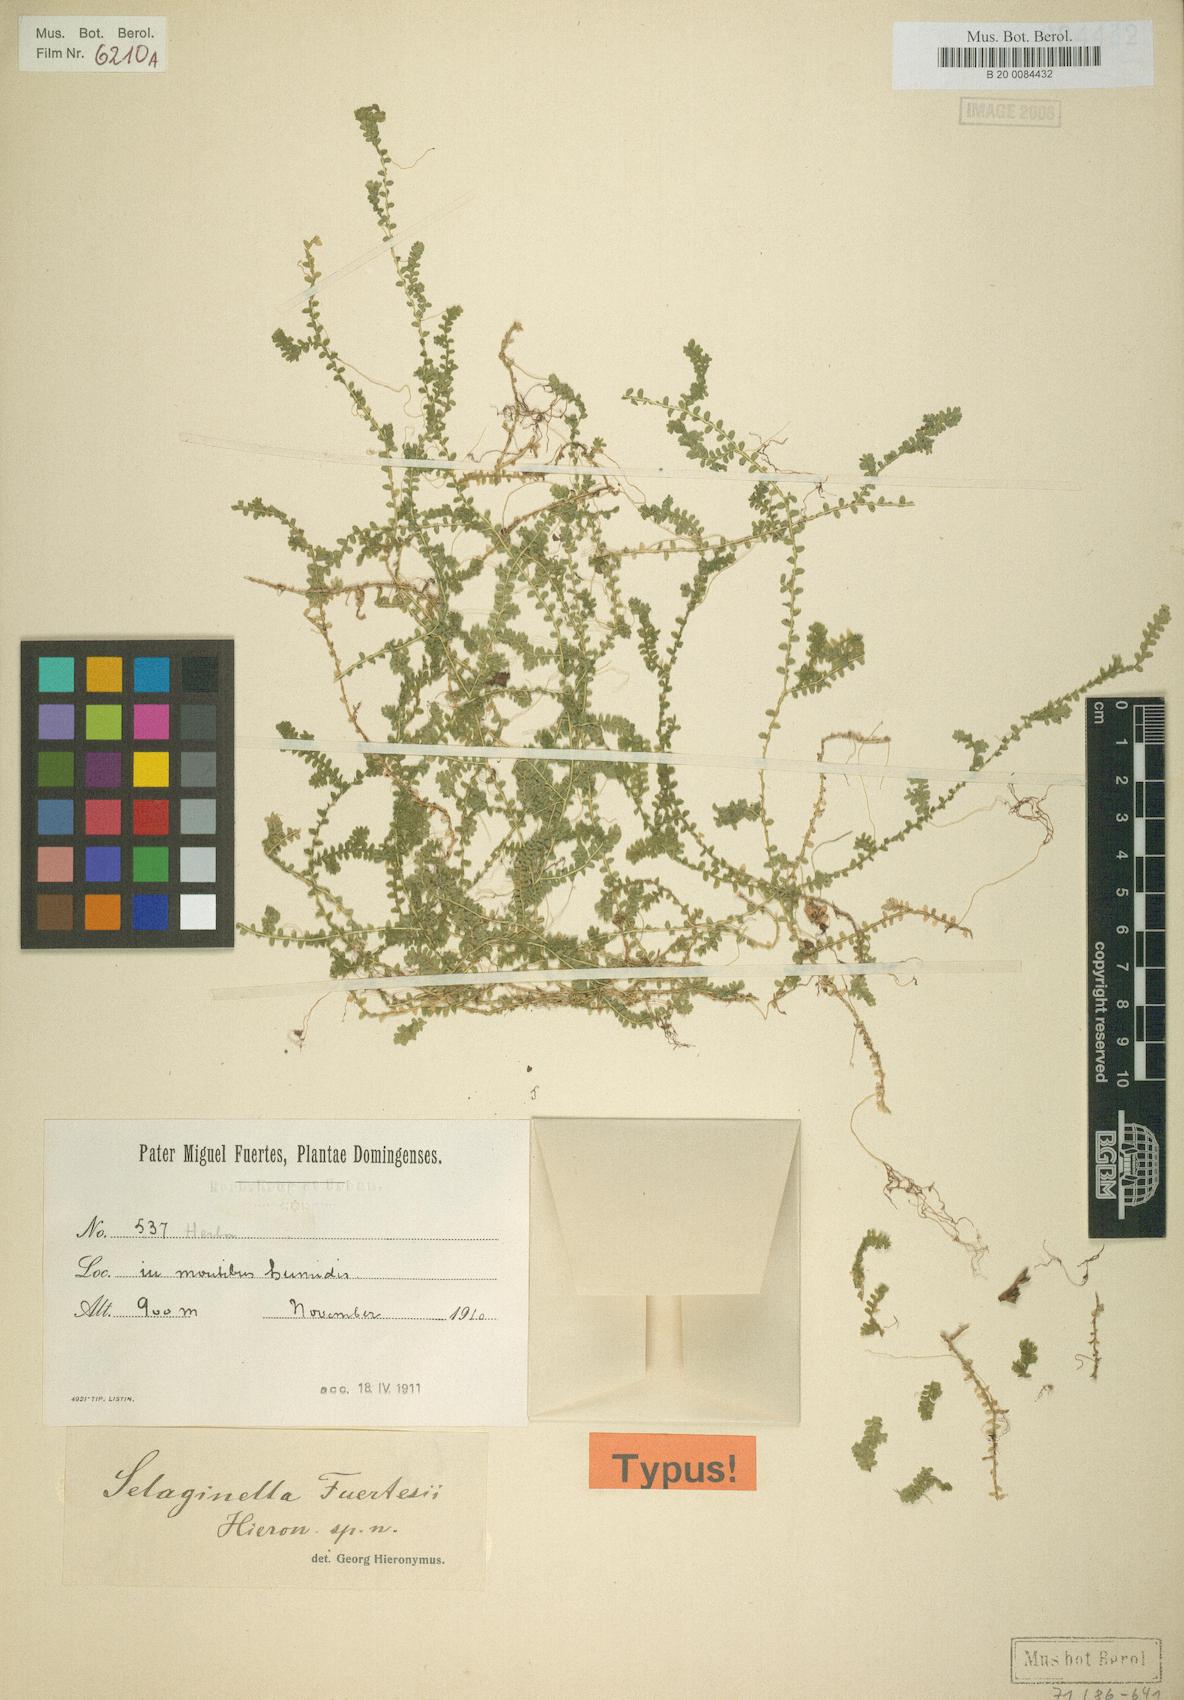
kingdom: Plantae
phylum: Tracheophyta
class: Lycopodiopsida
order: Selaginellales
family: Selaginellaceae
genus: Selaginella
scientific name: Selaginella fuertesii
